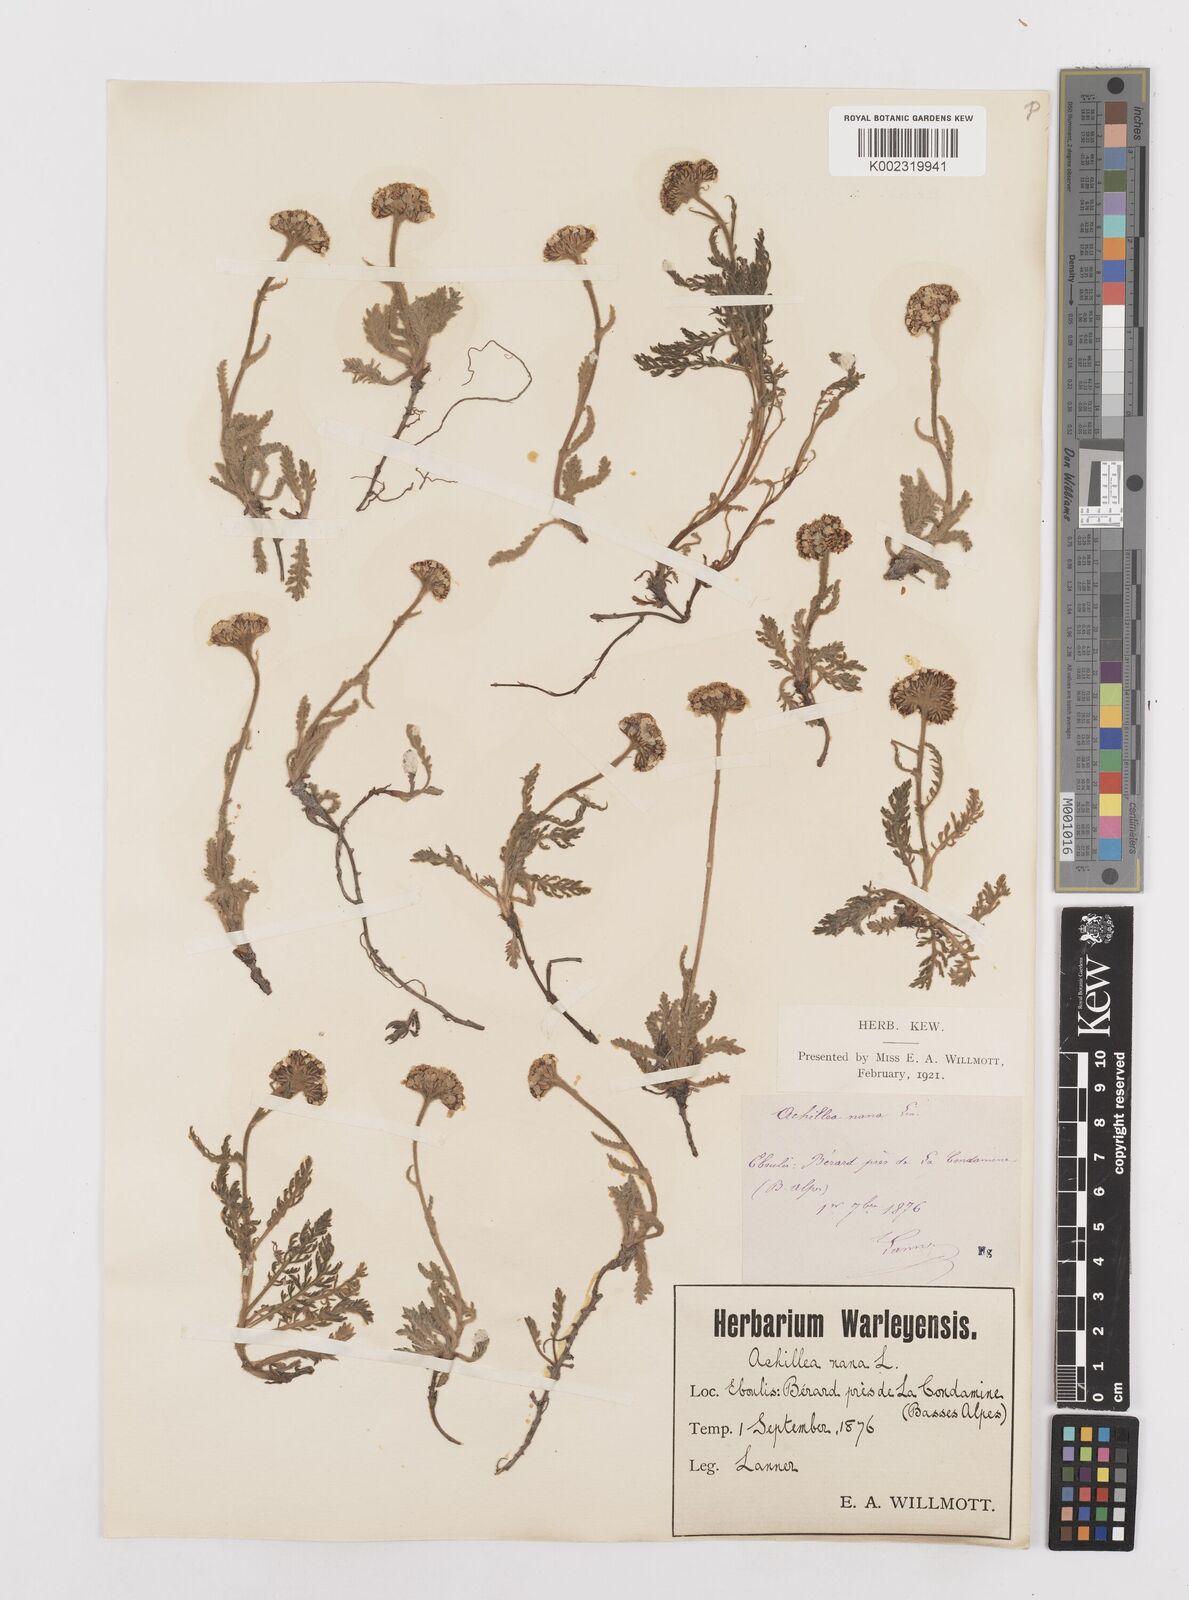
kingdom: Plantae
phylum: Tracheophyta
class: Magnoliopsida
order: Asterales
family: Asteraceae
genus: Achillea
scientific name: Achillea
